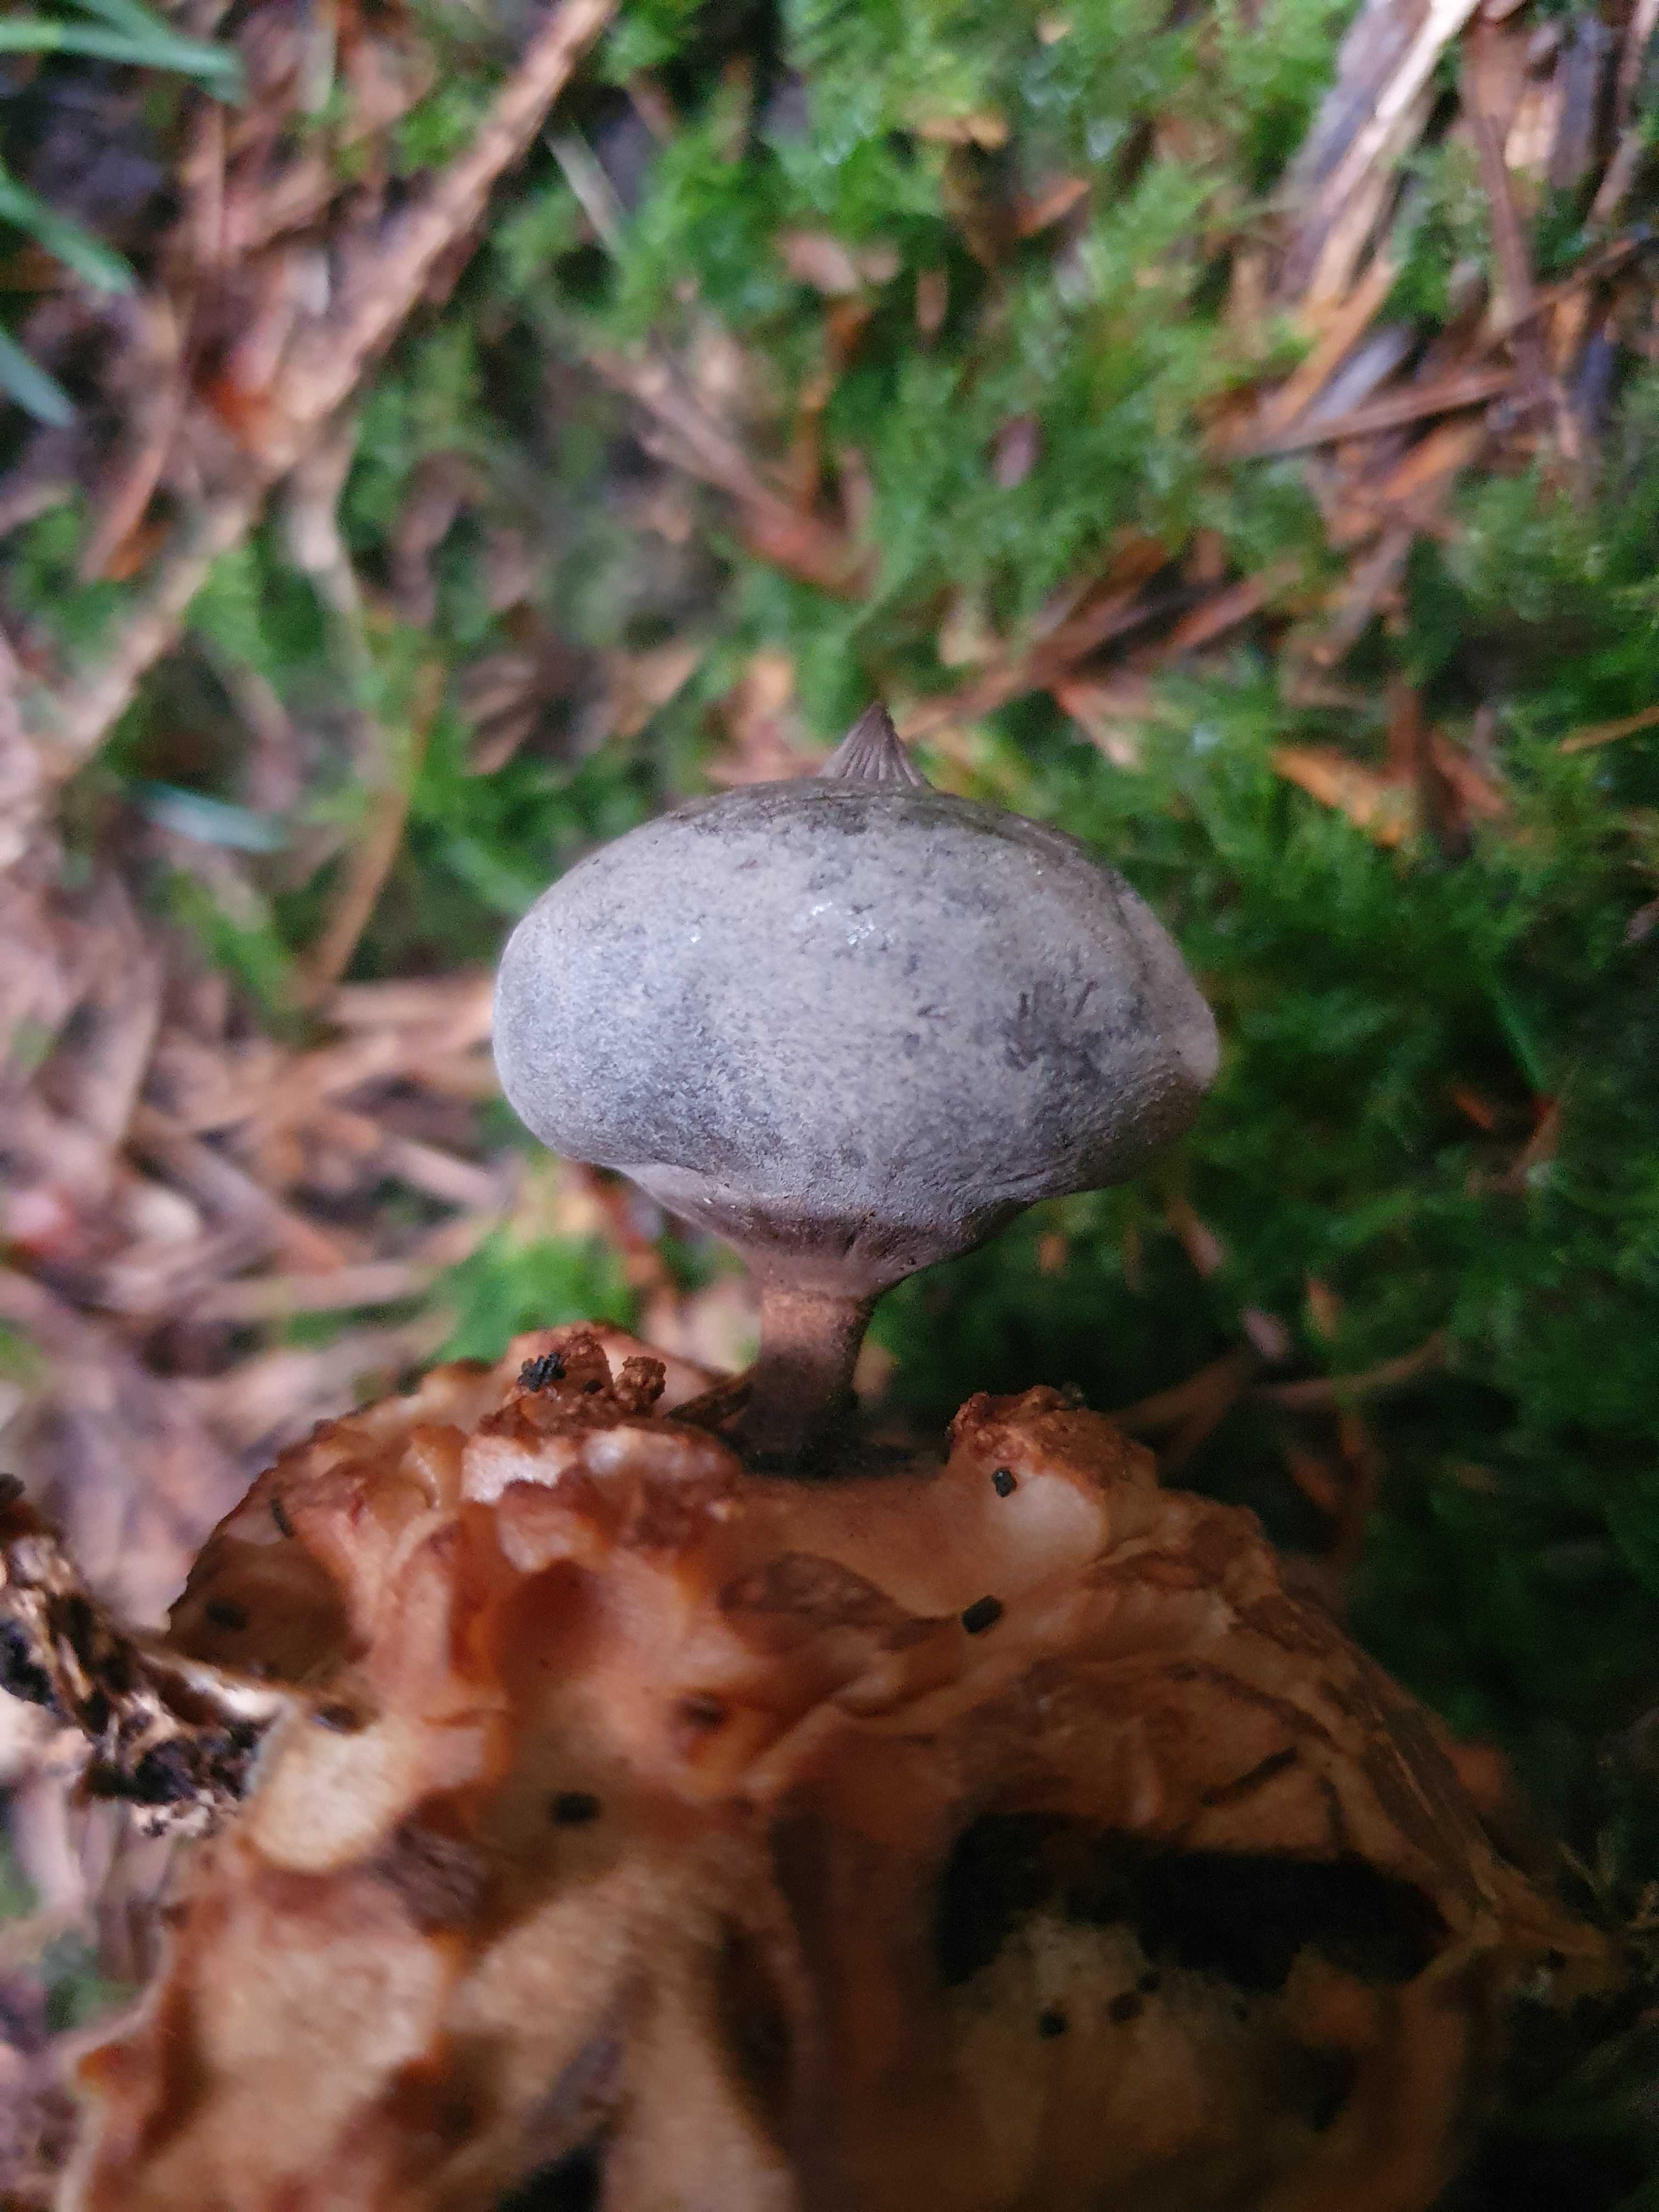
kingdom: Fungi
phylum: Basidiomycota
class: Agaricomycetes
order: Geastrales
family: Geastraceae
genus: Geastrum
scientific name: Geastrum pectinatum
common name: stilket stjernebold
